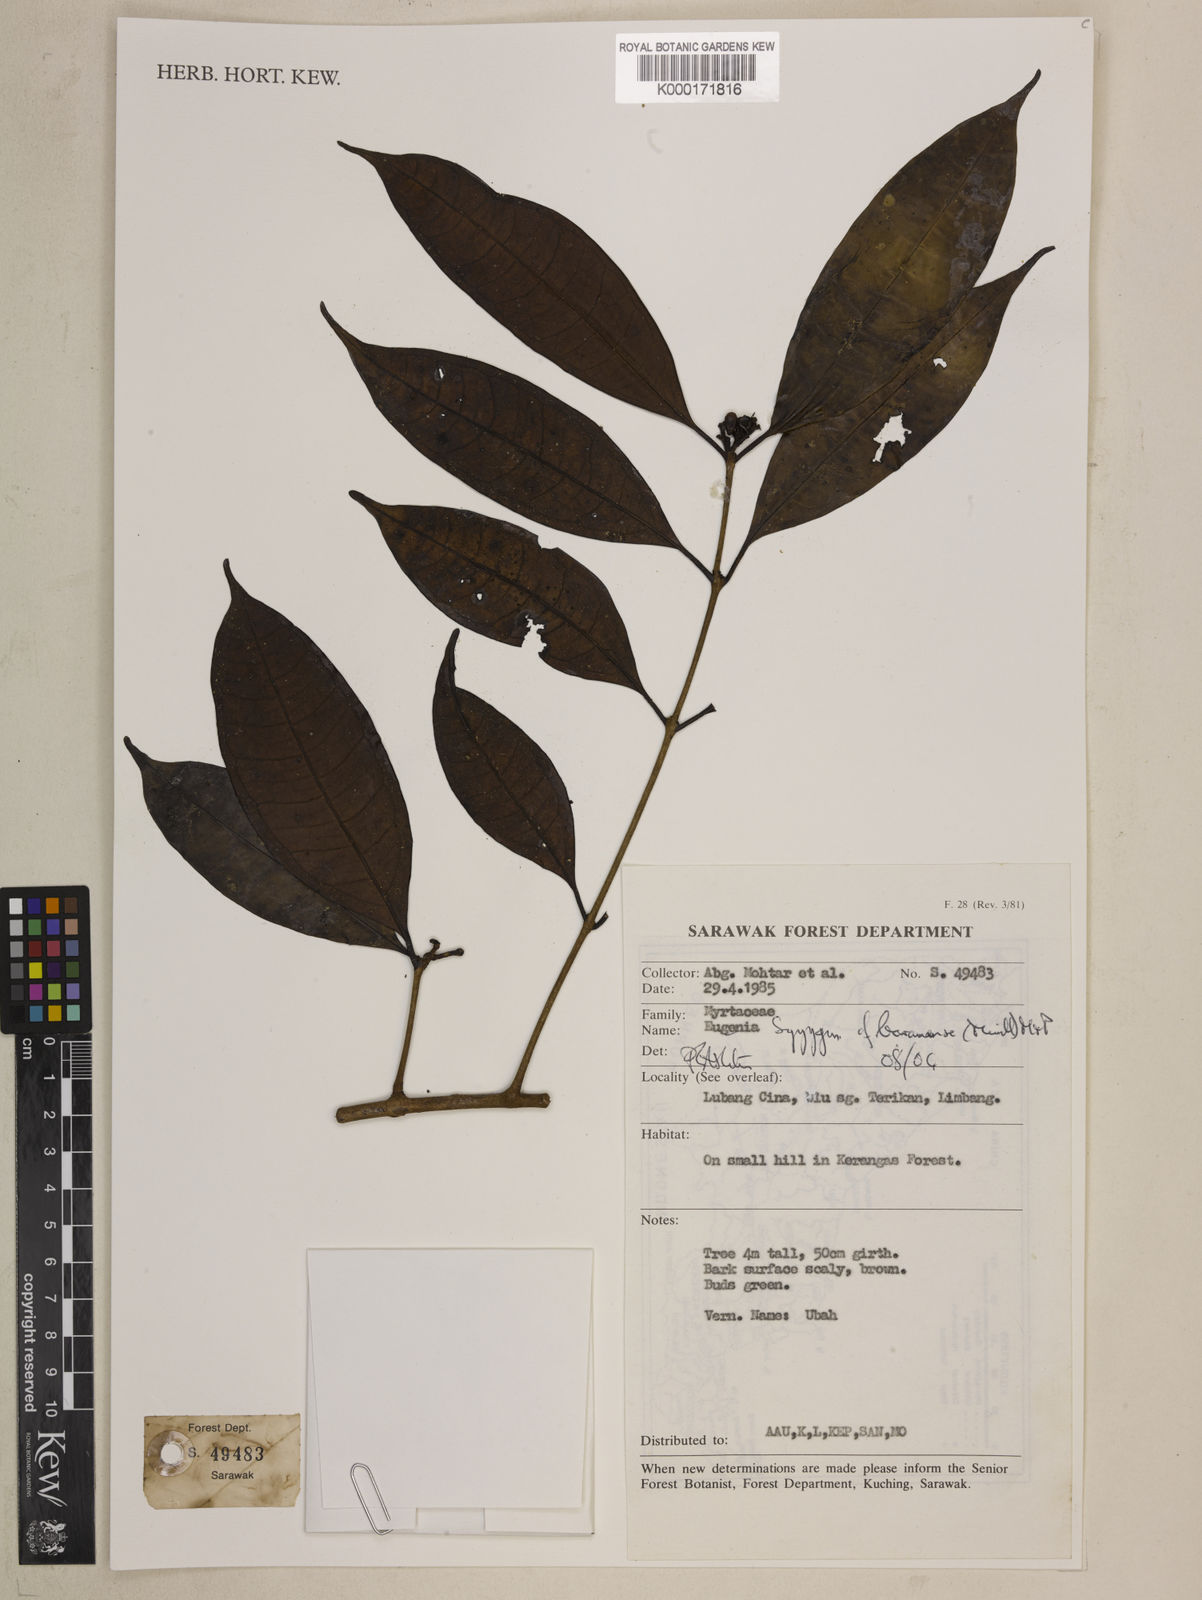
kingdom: Plantae
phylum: Tracheophyta
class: Magnoliopsida
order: Myrtales
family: Myrtaceae
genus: Syzygium
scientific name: Syzygium baramense
